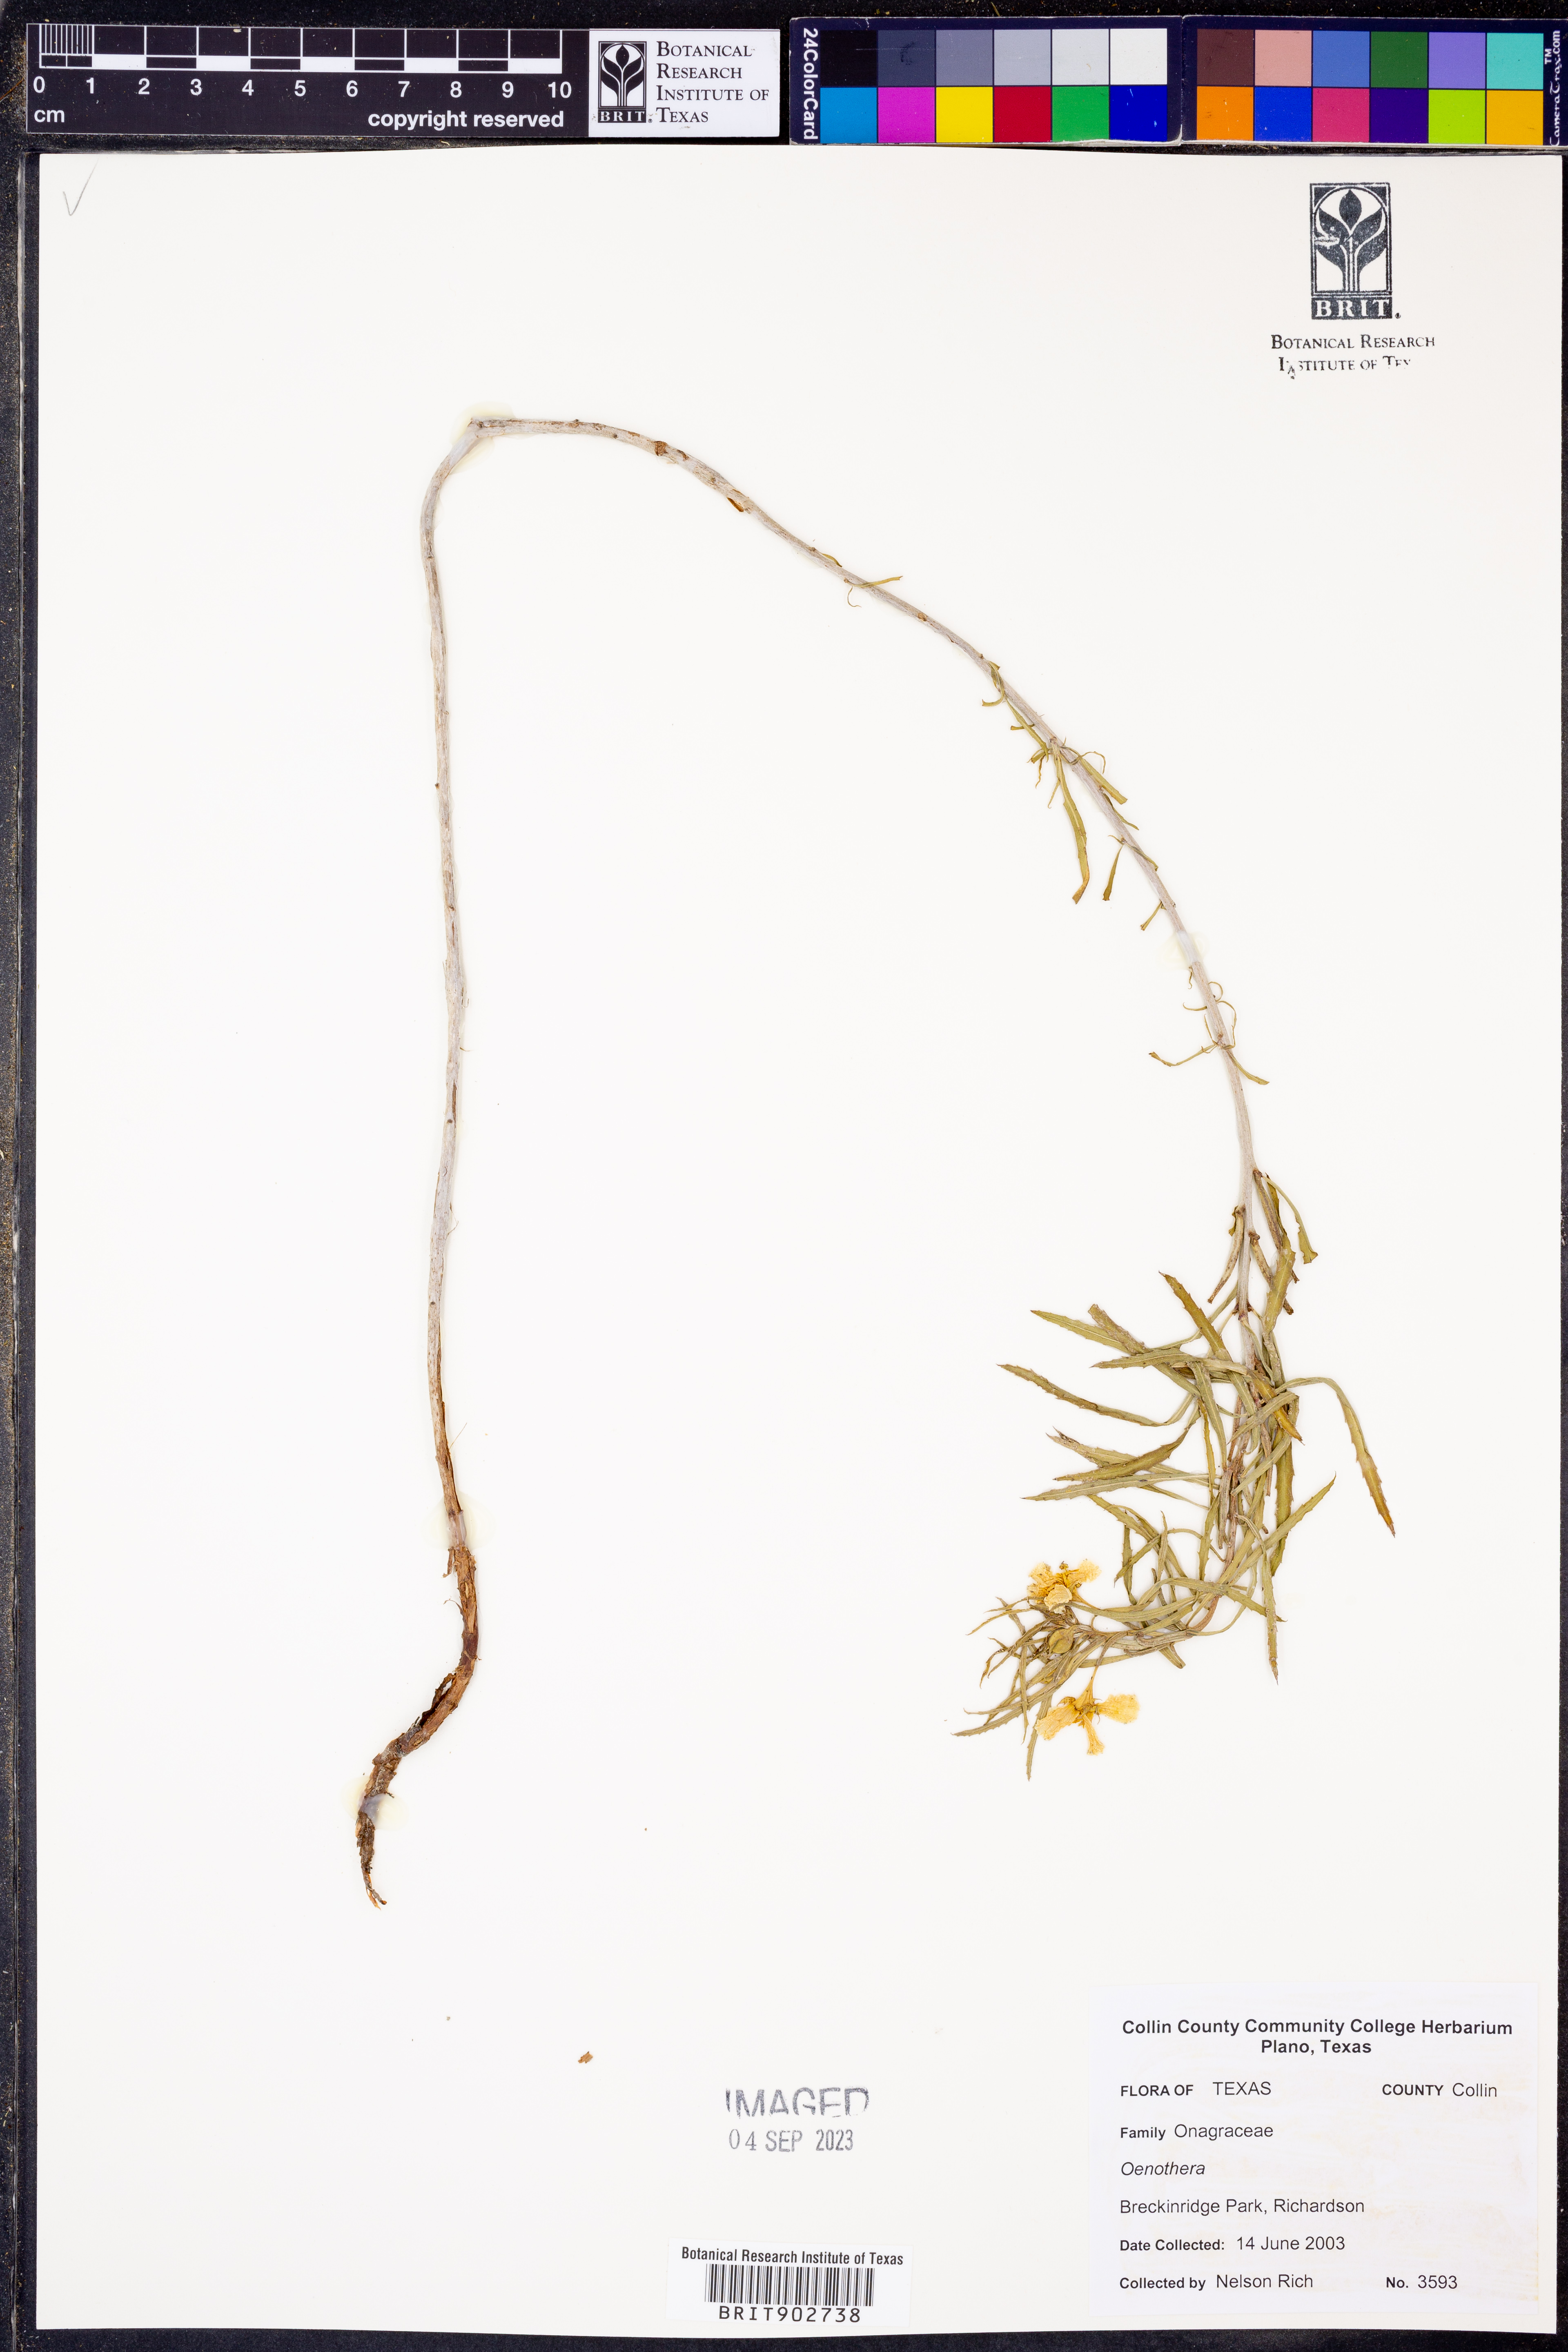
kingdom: Plantae
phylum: Tracheophyta
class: Magnoliopsida
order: Myrtales
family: Onagraceae
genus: Oenothera
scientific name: Oenothera
